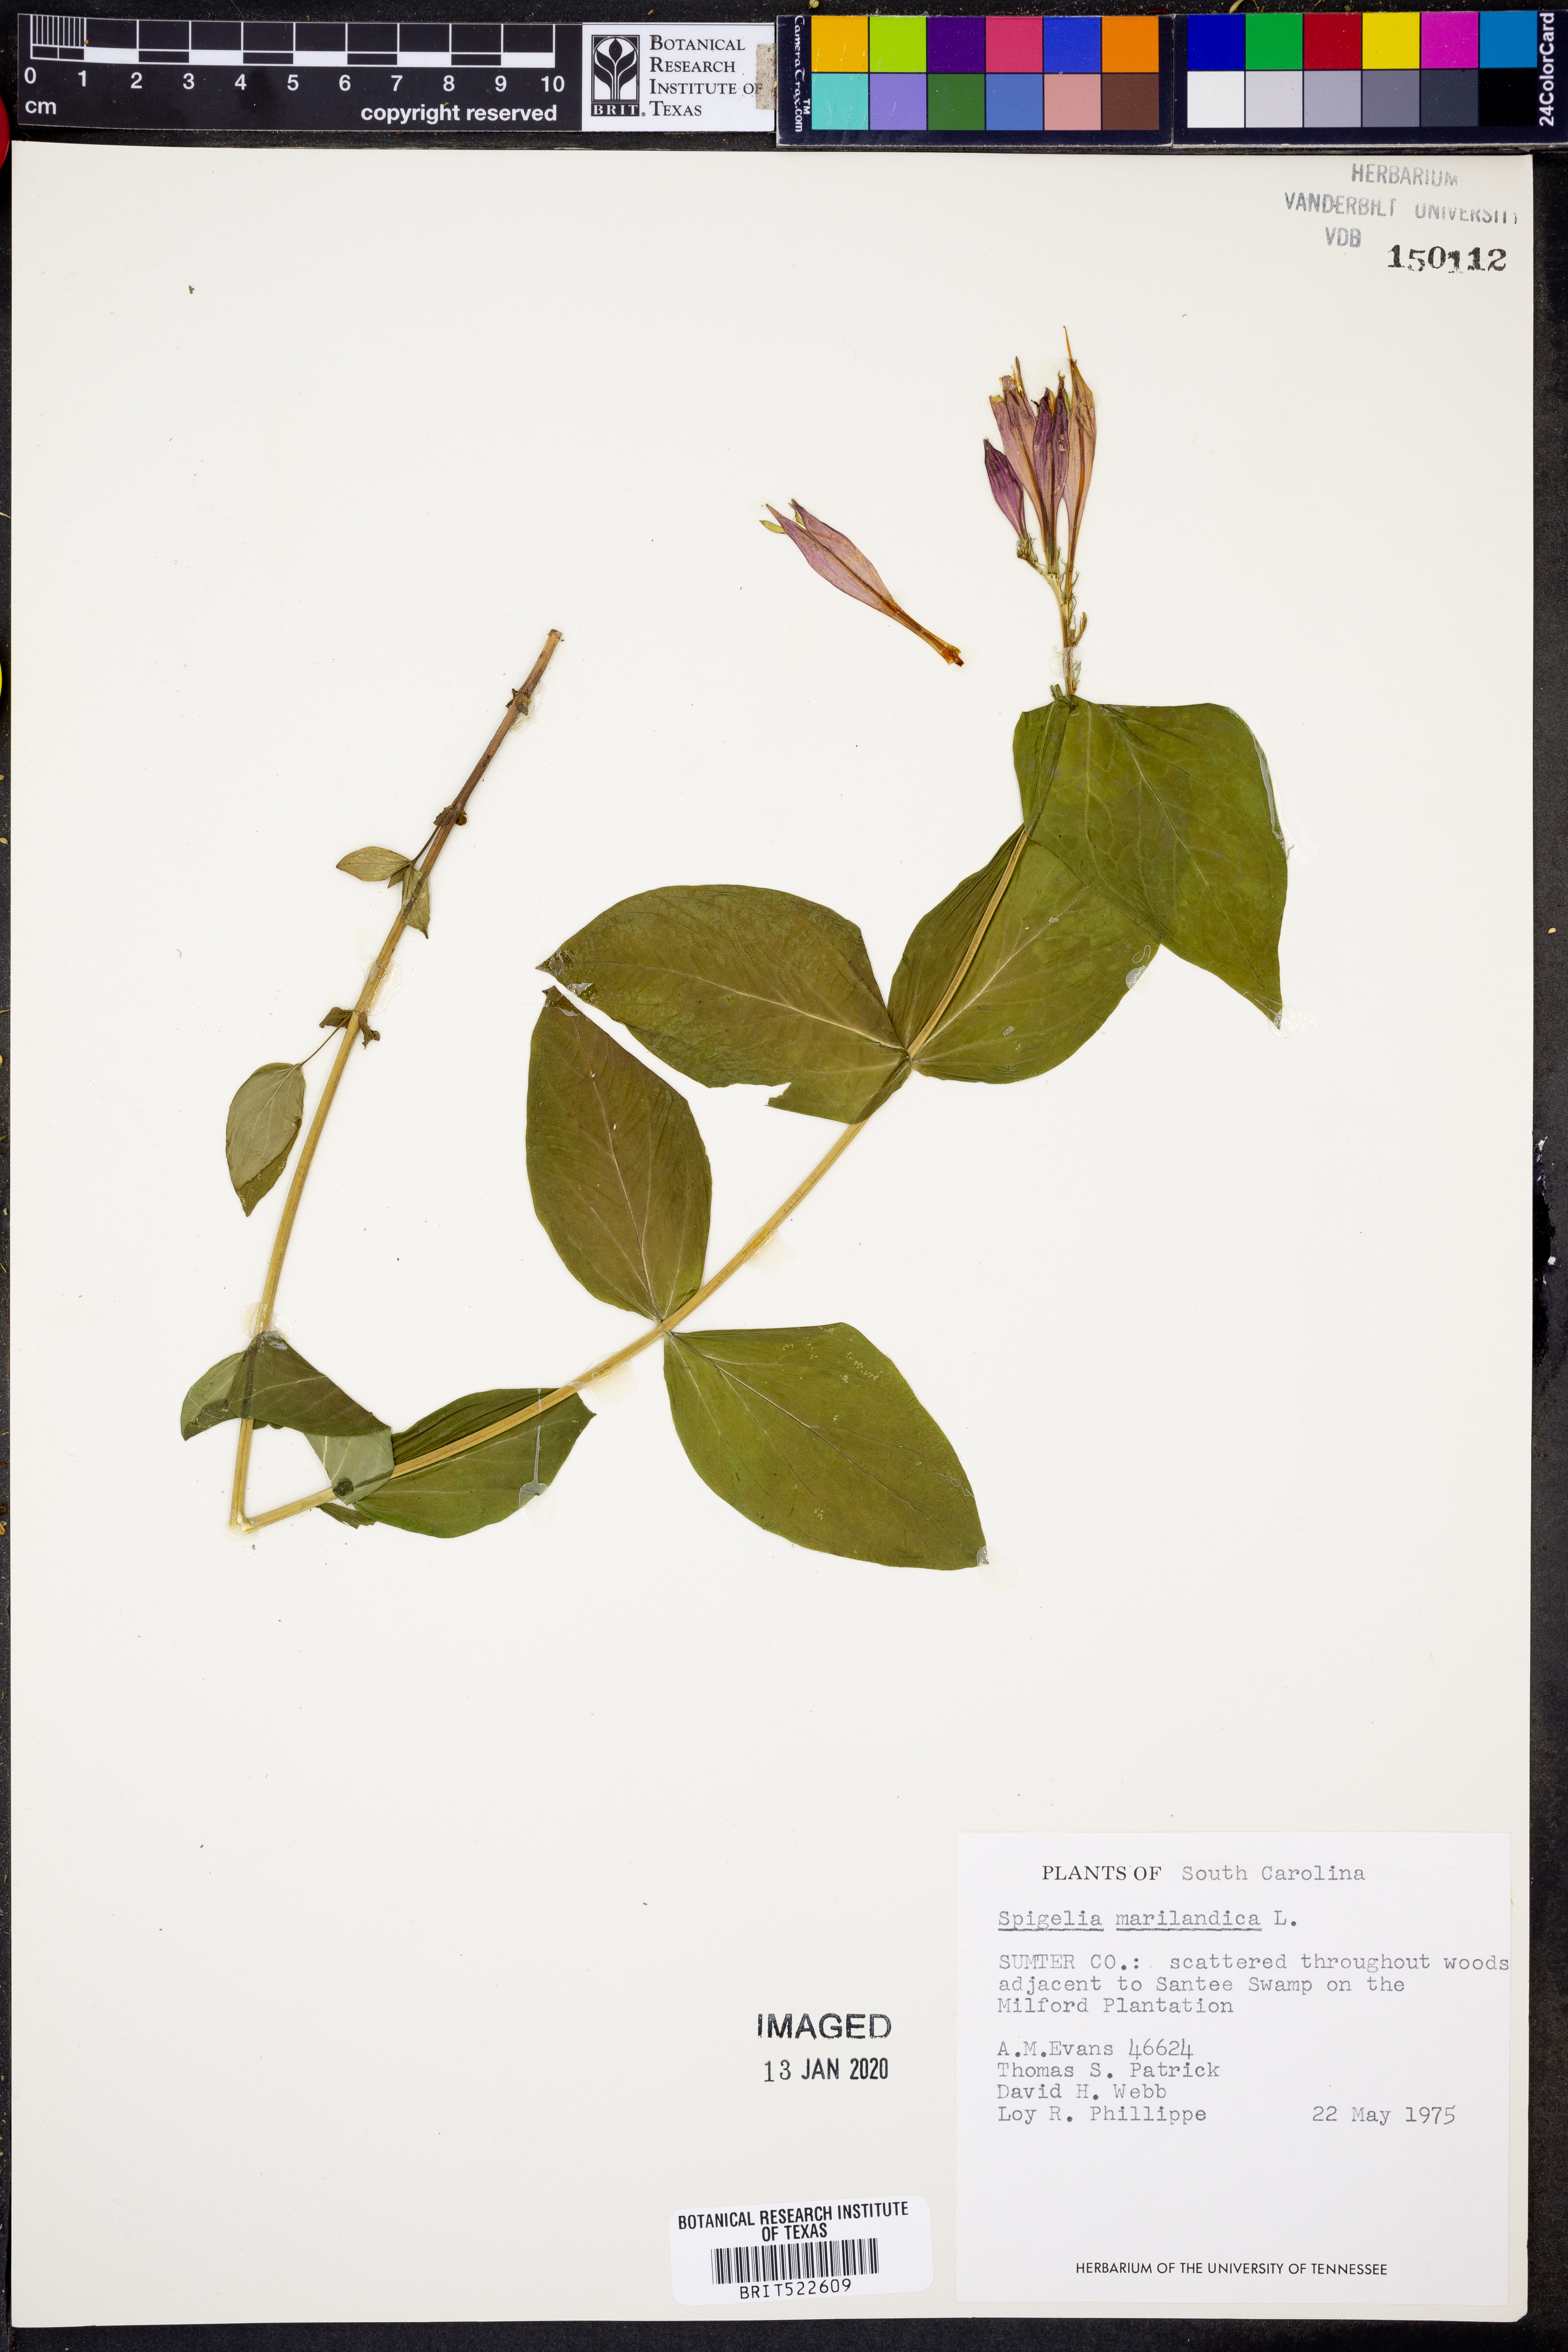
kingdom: Plantae
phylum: Tracheophyta
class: Magnoliopsida
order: Gentianales
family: Loganiaceae
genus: Spigelia
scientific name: Spigelia marilandica
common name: Indian-pink
